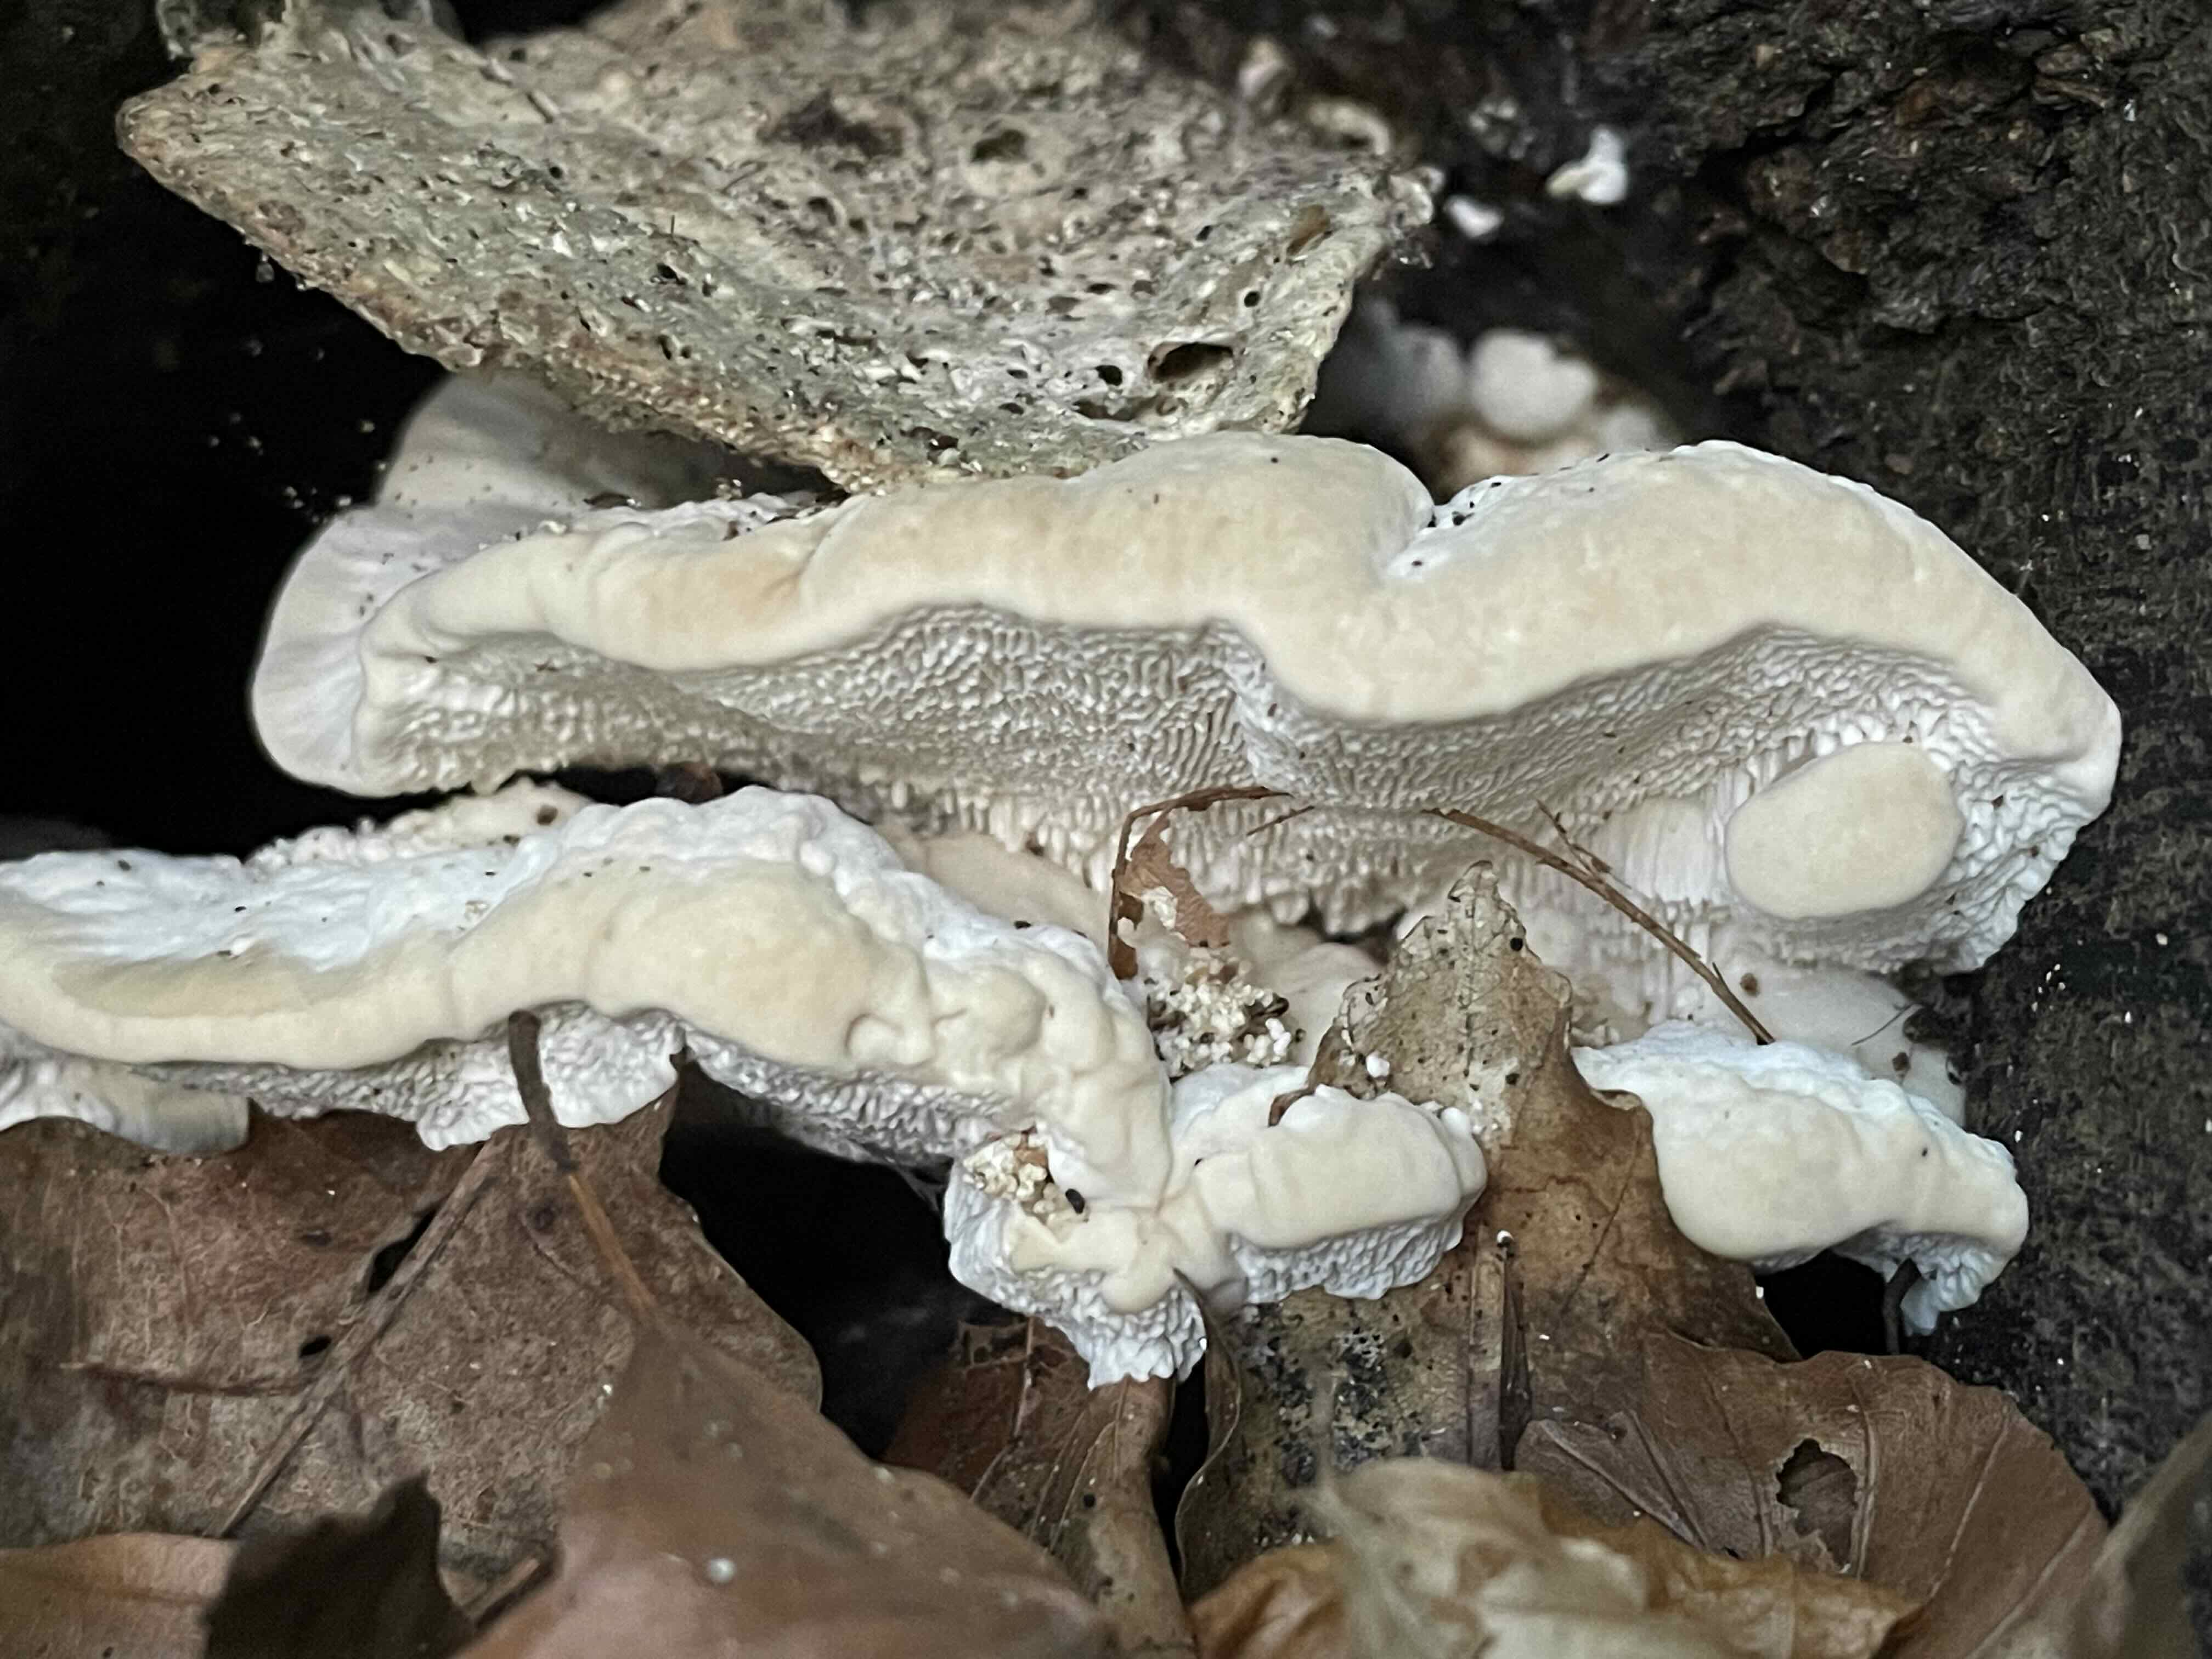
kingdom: Fungi
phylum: Basidiomycota
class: Agaricomycetes
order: Polyporales
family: Polyporaceae
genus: Trametes
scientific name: Trametes gibbosa
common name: puklet læderporesvamp
